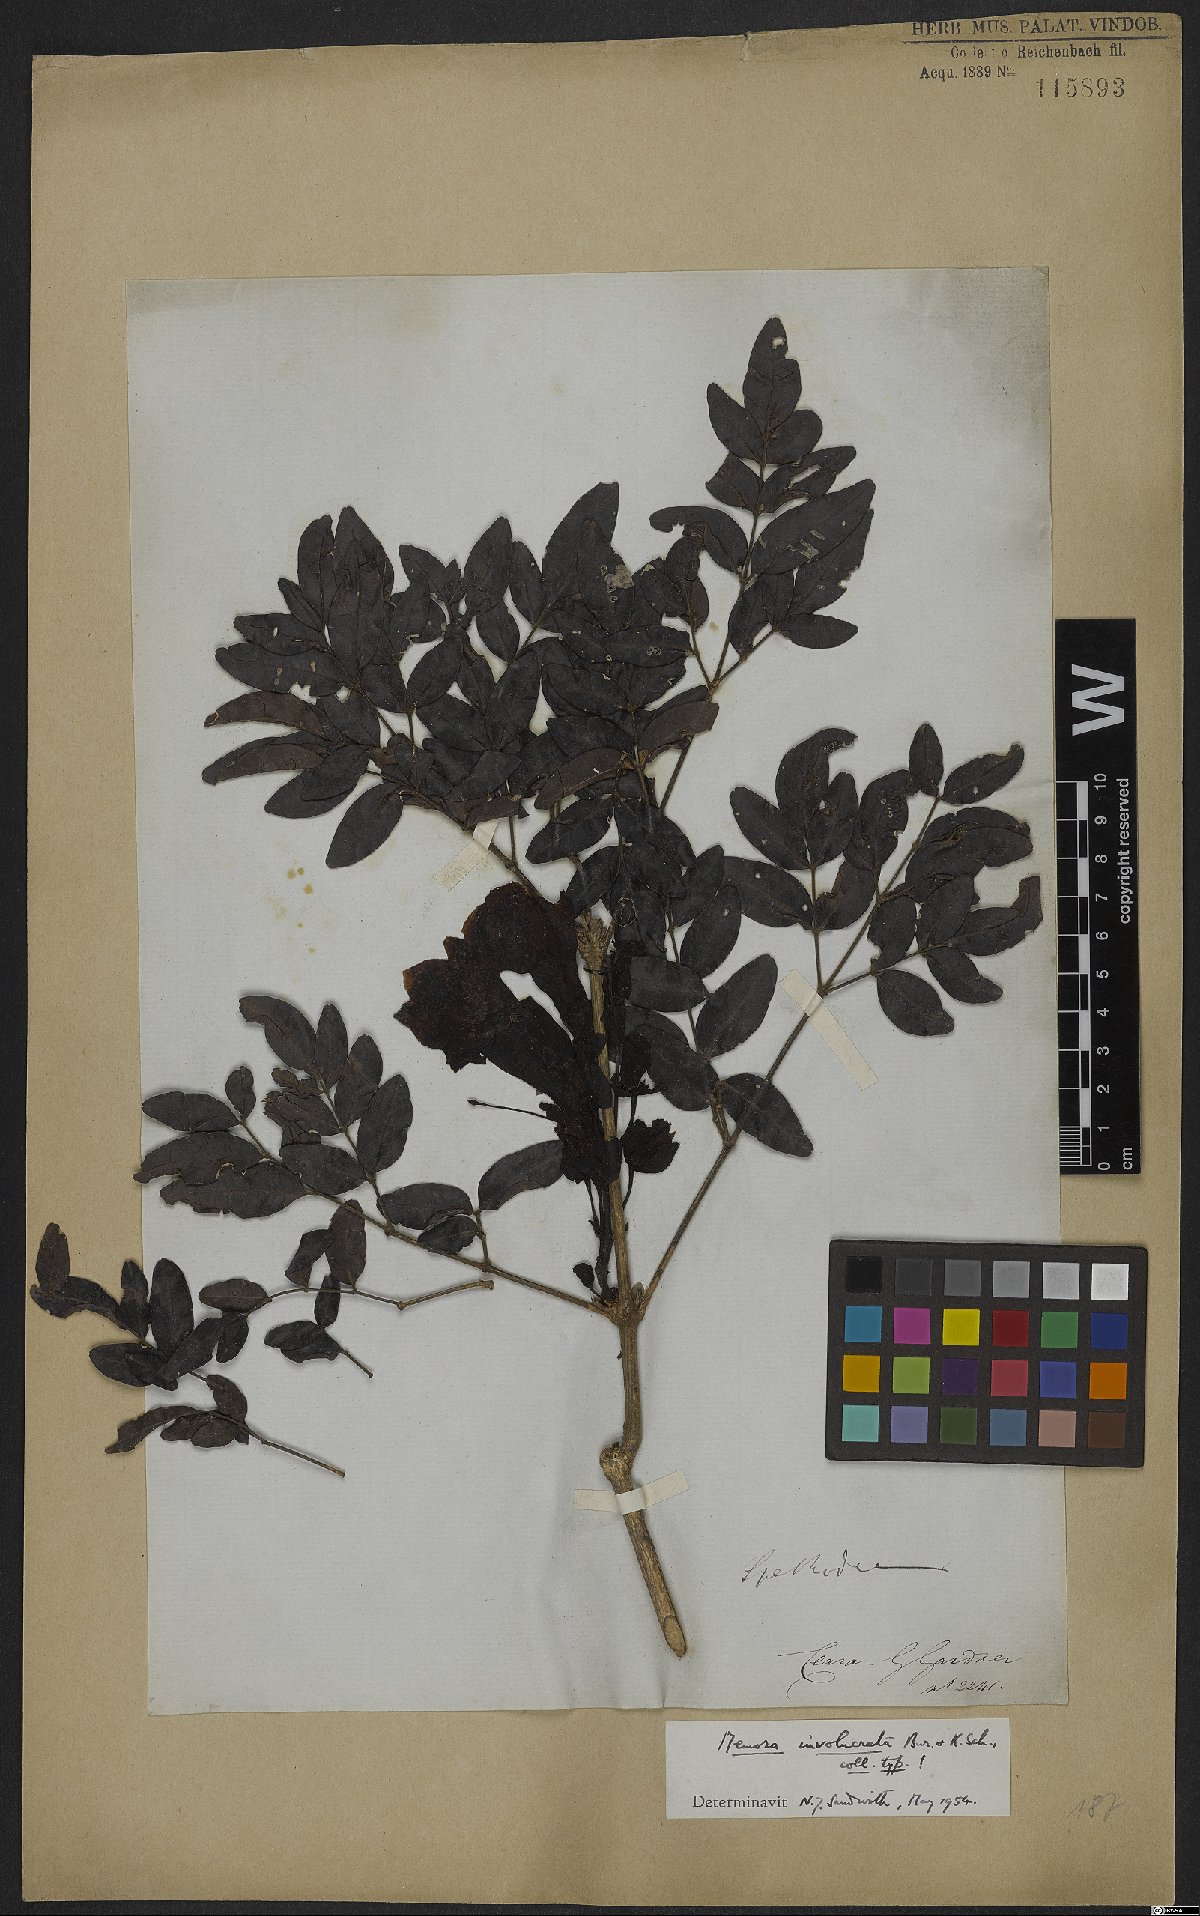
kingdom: Plantae
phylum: Tracheophyta
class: Magnoliopsida
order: Lamiales
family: Bignoniaceae
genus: Adenocalymma
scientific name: Adenocalymma involucratum
